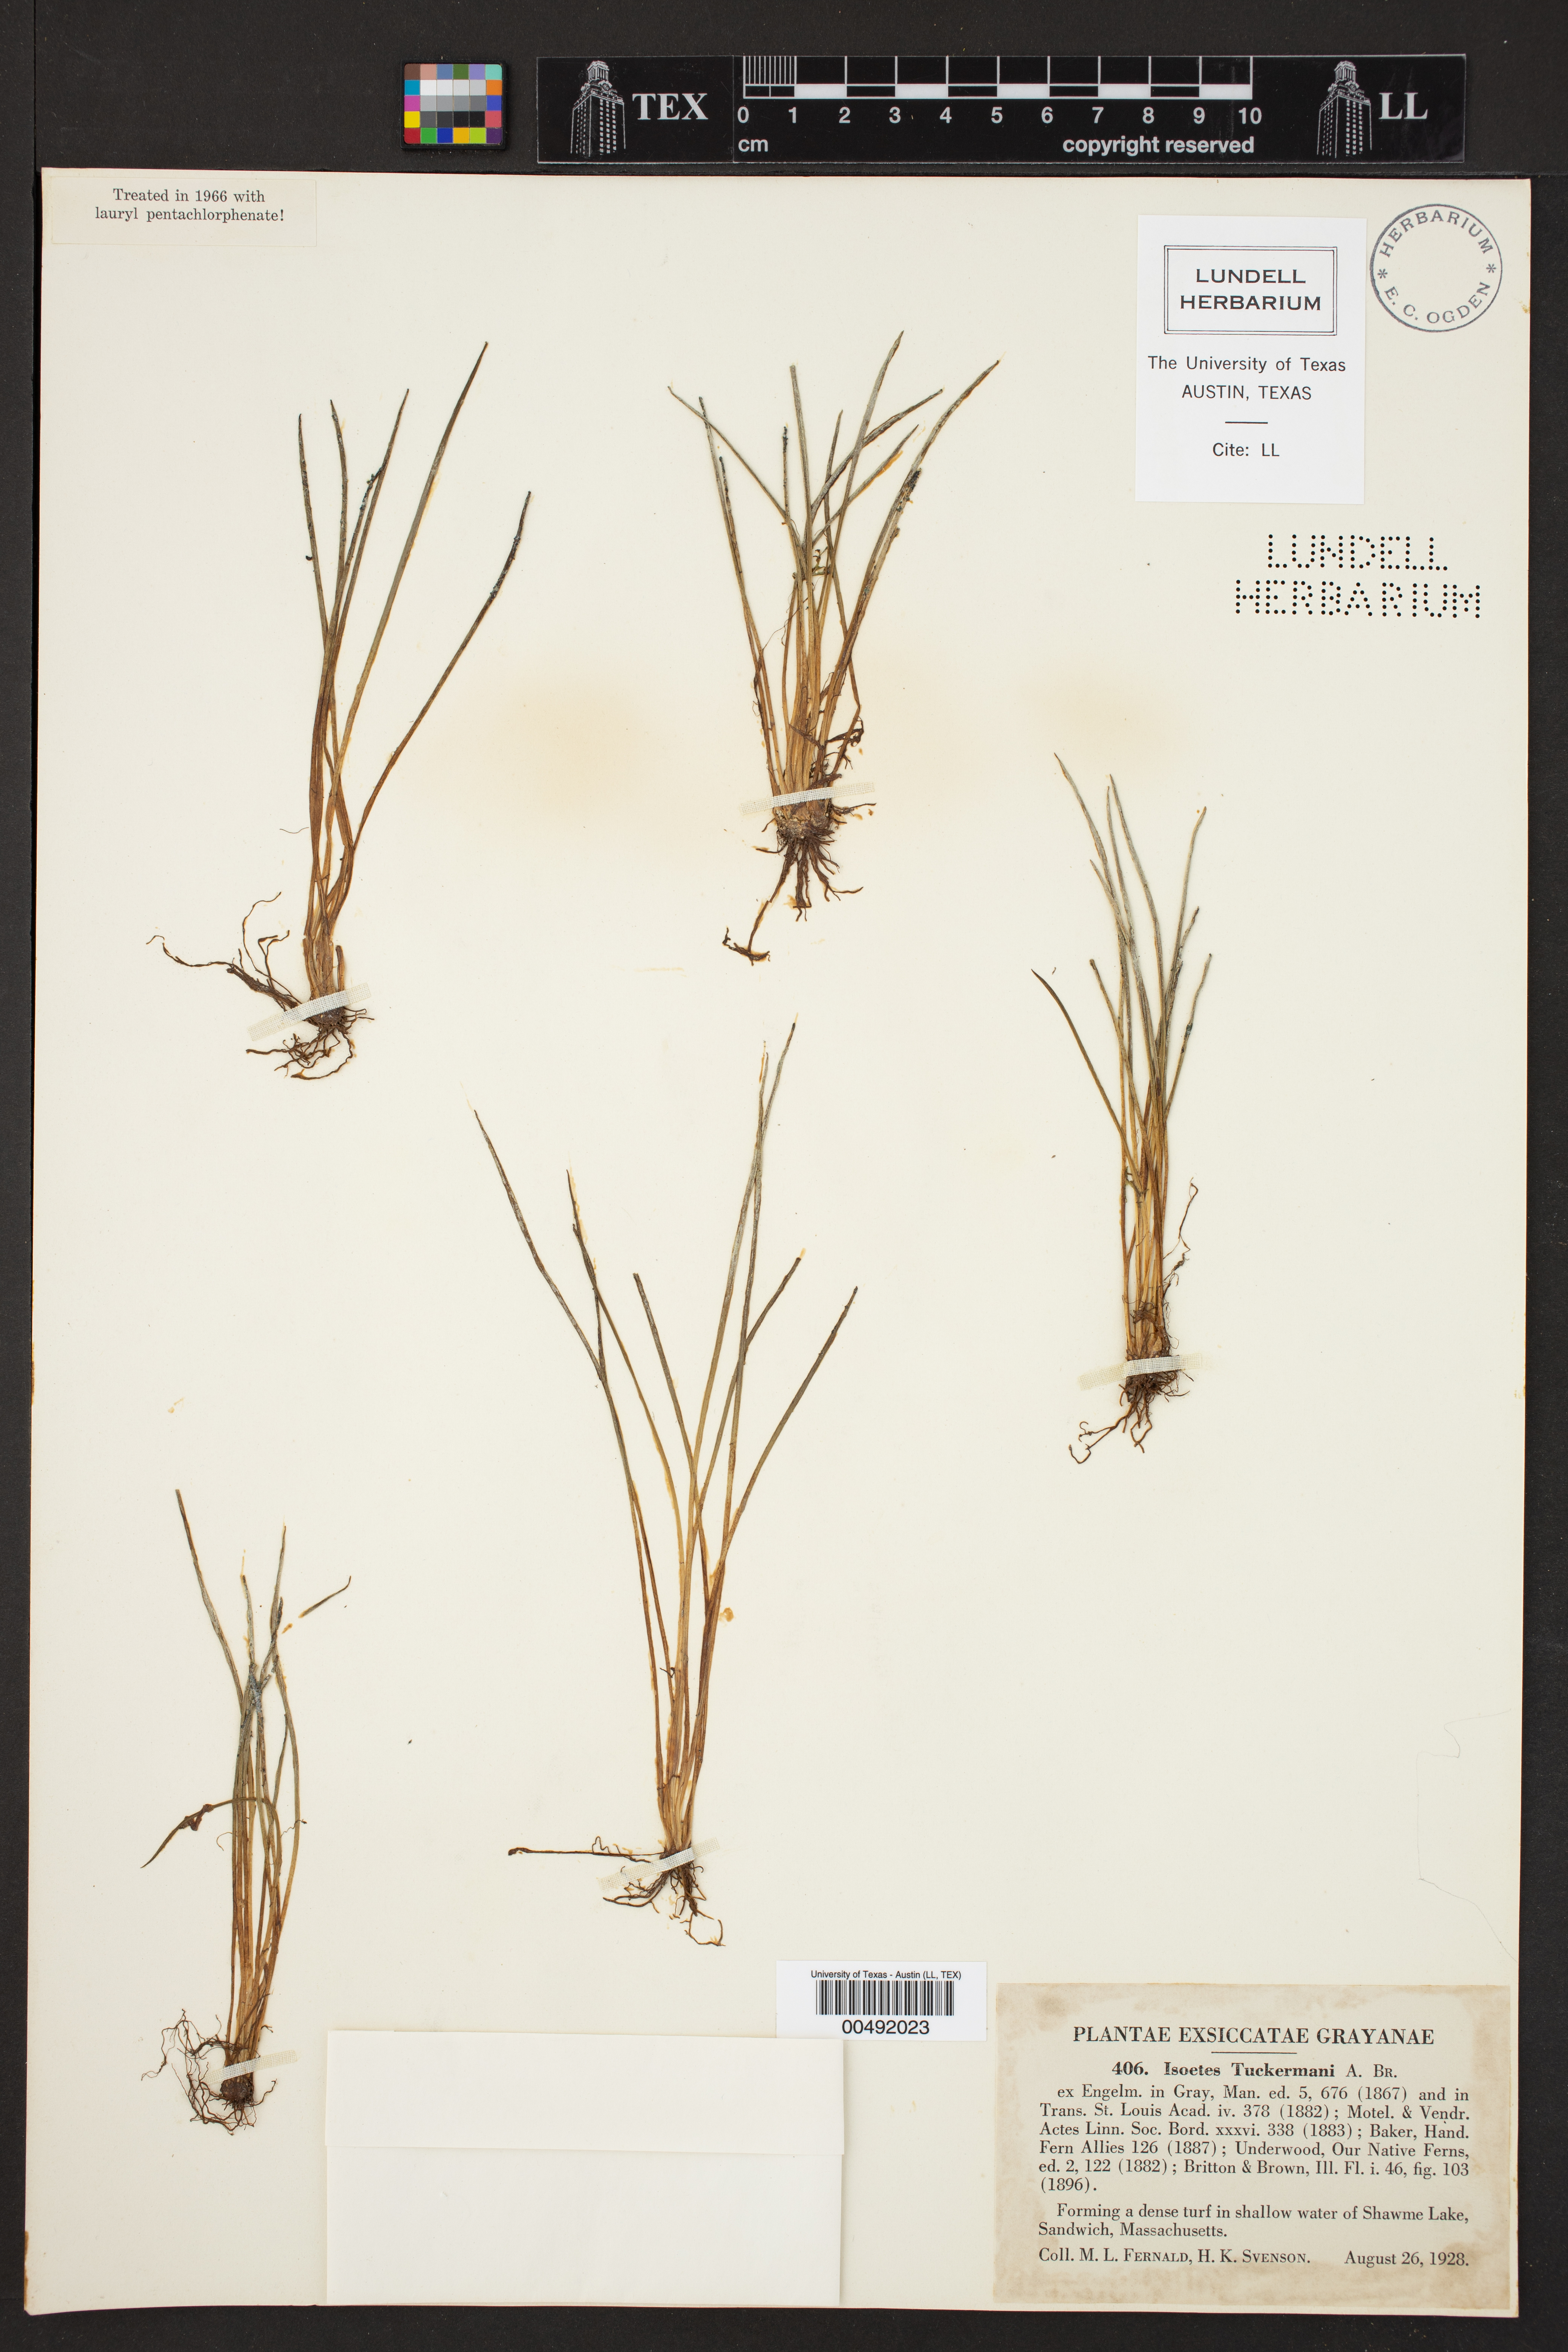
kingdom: Plantae
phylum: Tracheophyta
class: Lycopodiopsida
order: Isoetales
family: Isoetaceae
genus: Isoetes
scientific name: Isoetes tuckermanii
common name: Tuckerman's quillwort
